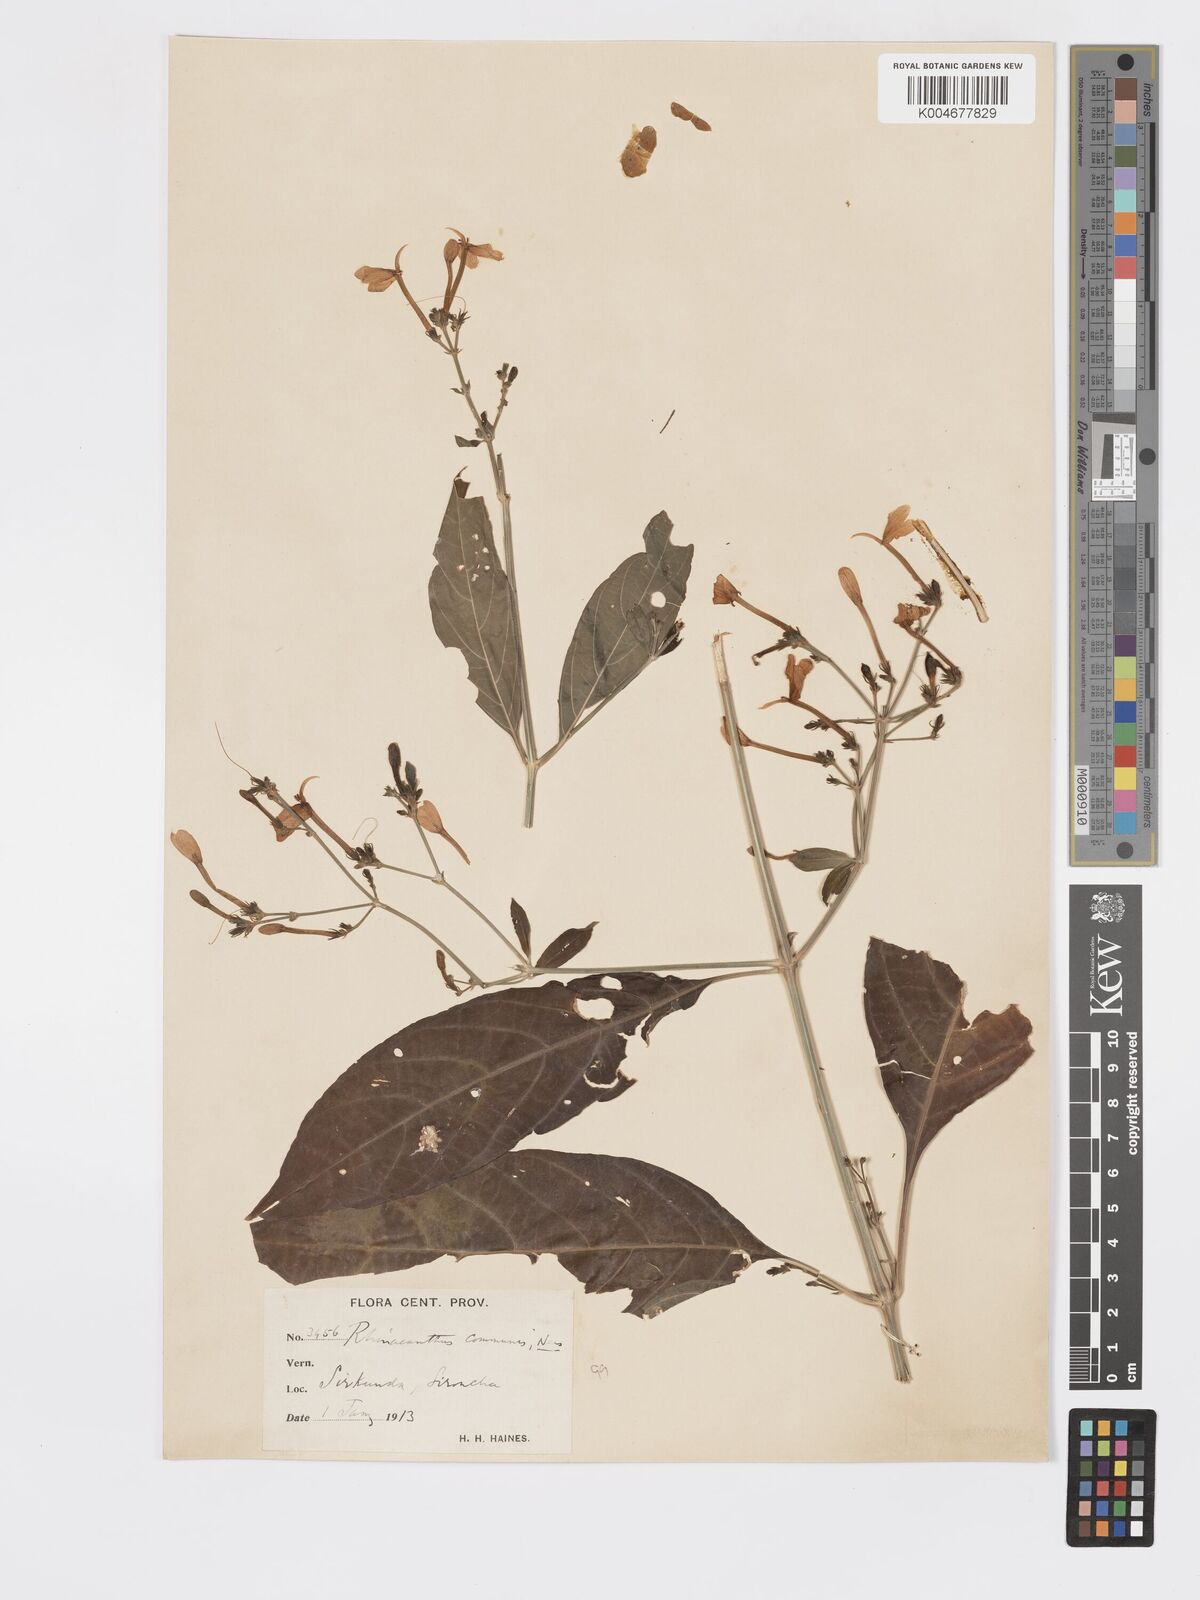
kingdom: Plantae
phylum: Tracheophyta
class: Magnoliopsida
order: Lamiales
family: Acanthaceae
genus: Rhinacanthus
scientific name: Rhinacanthus nasutus
